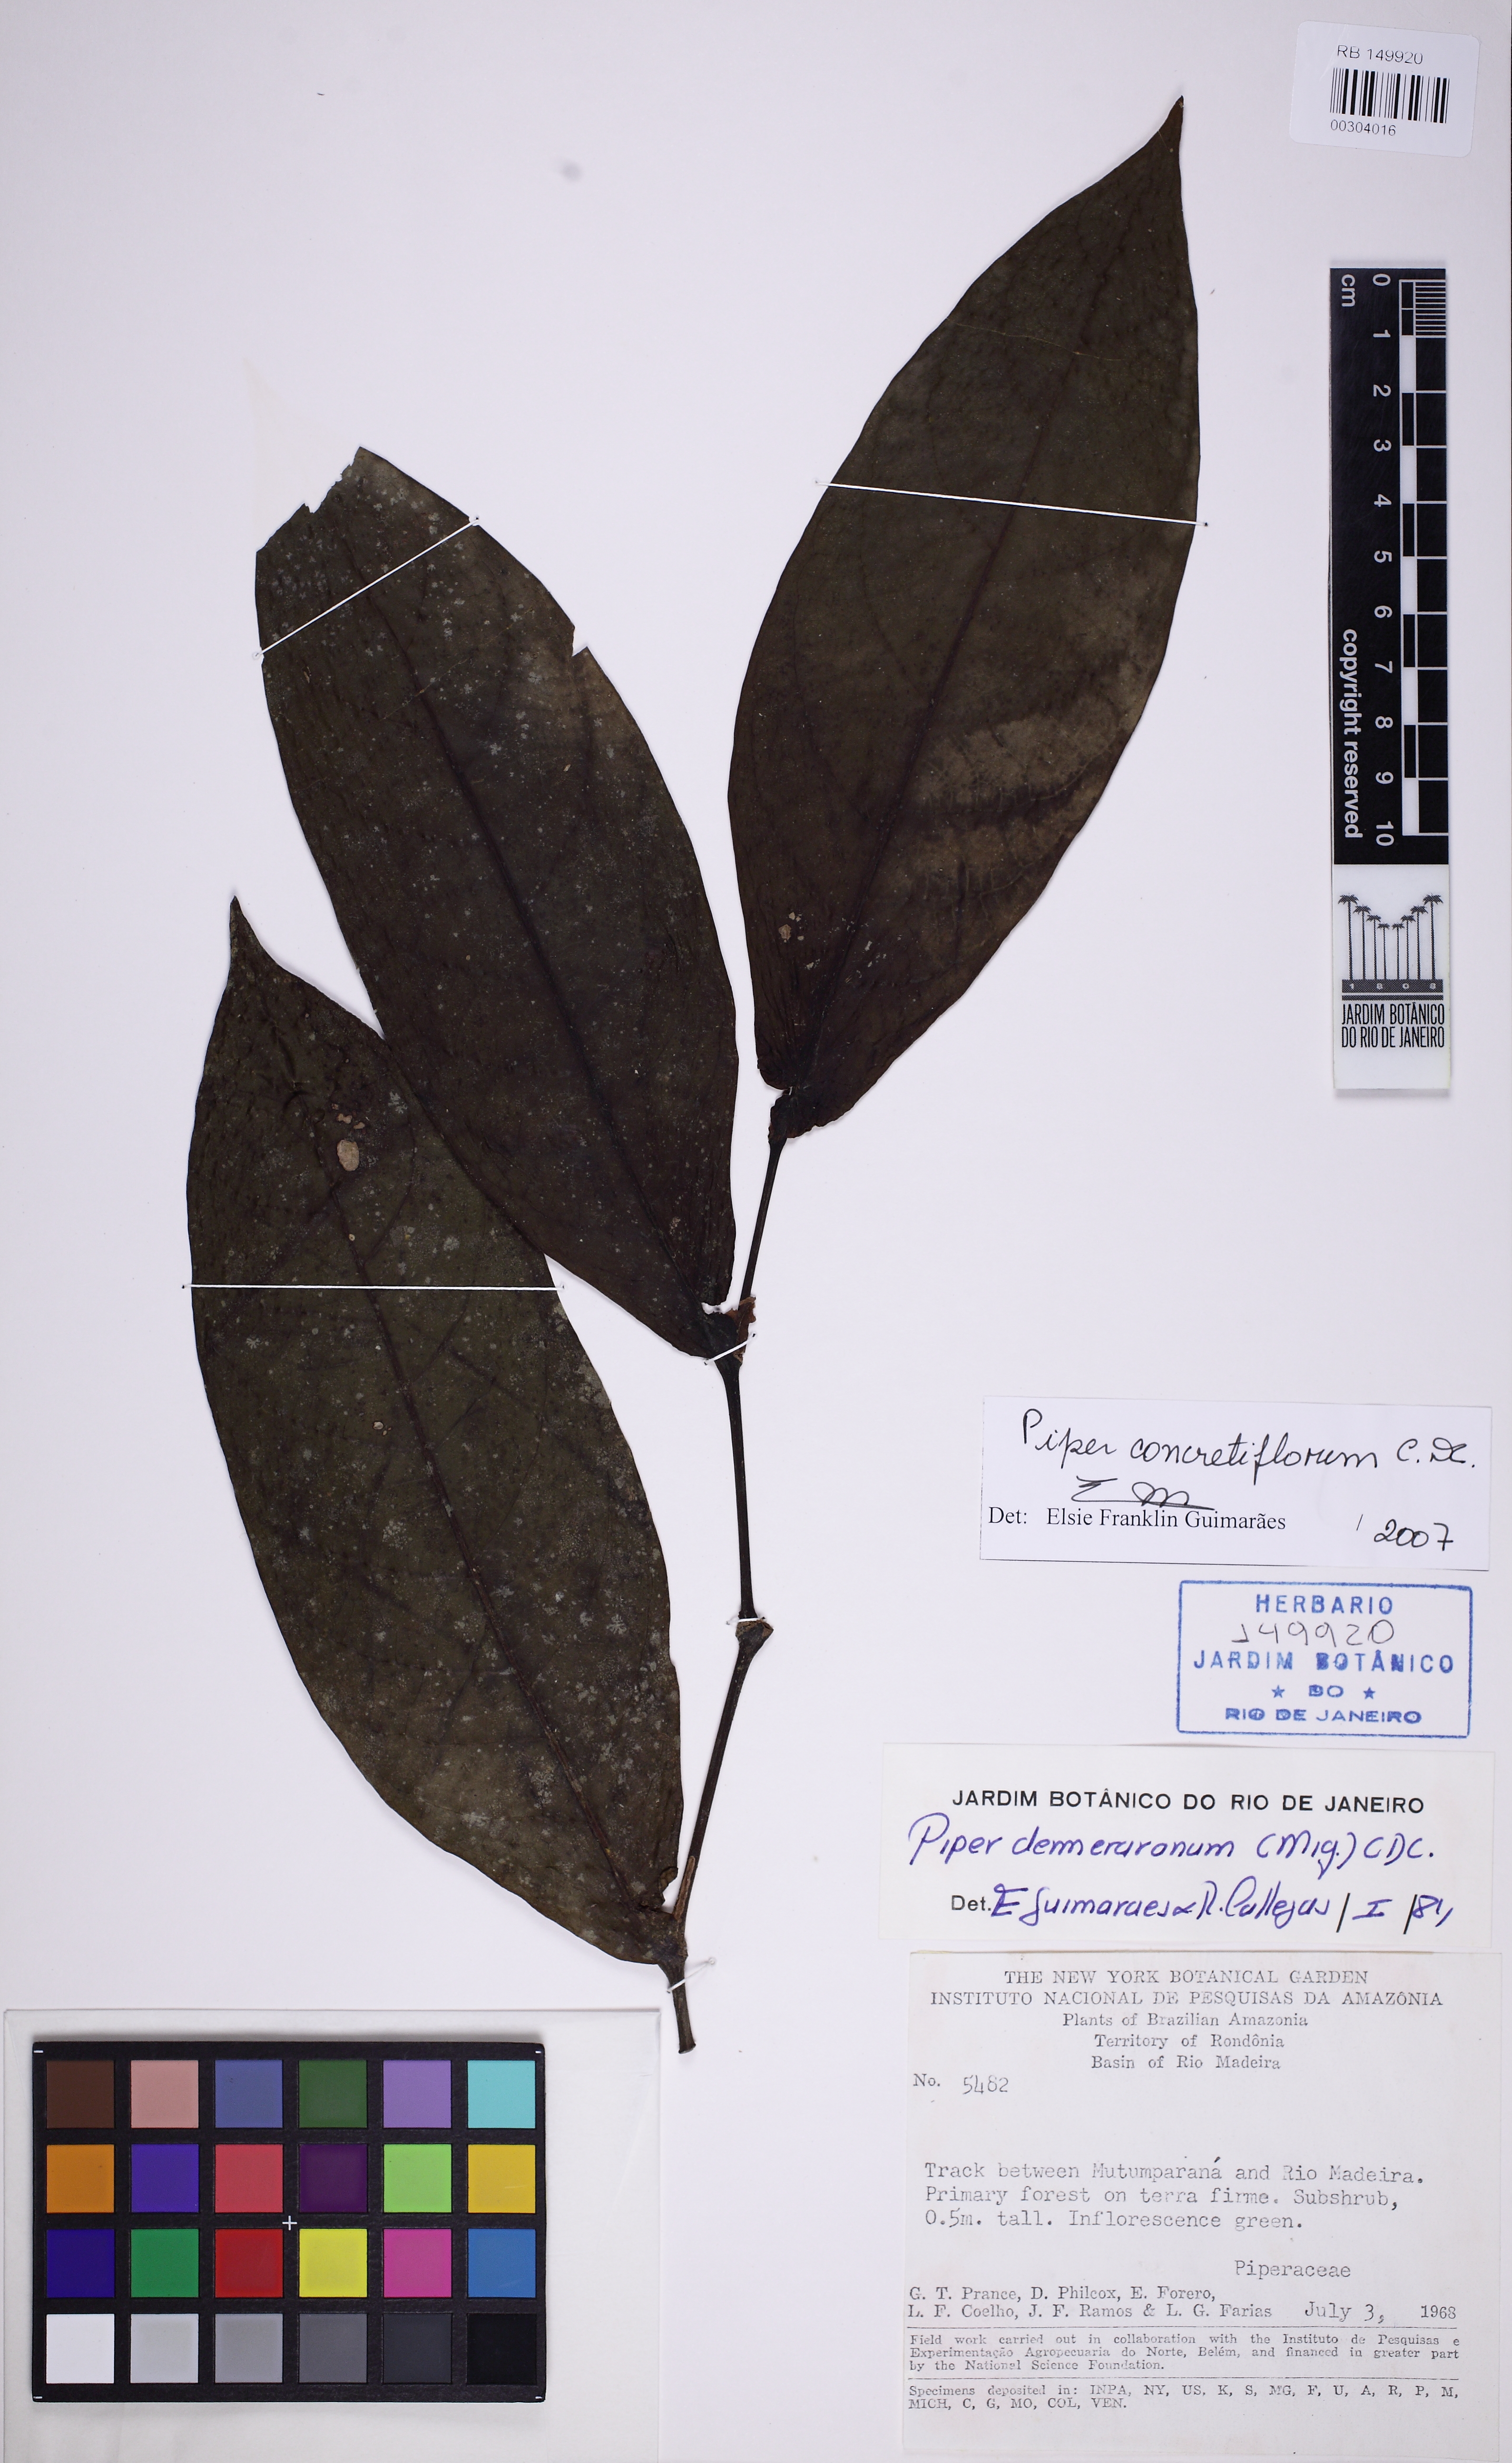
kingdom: Plantae
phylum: Tracheophyta
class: Magnoliopsida
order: Piperales
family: Piperaceae
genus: Piper
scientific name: Piper concretiflorum
